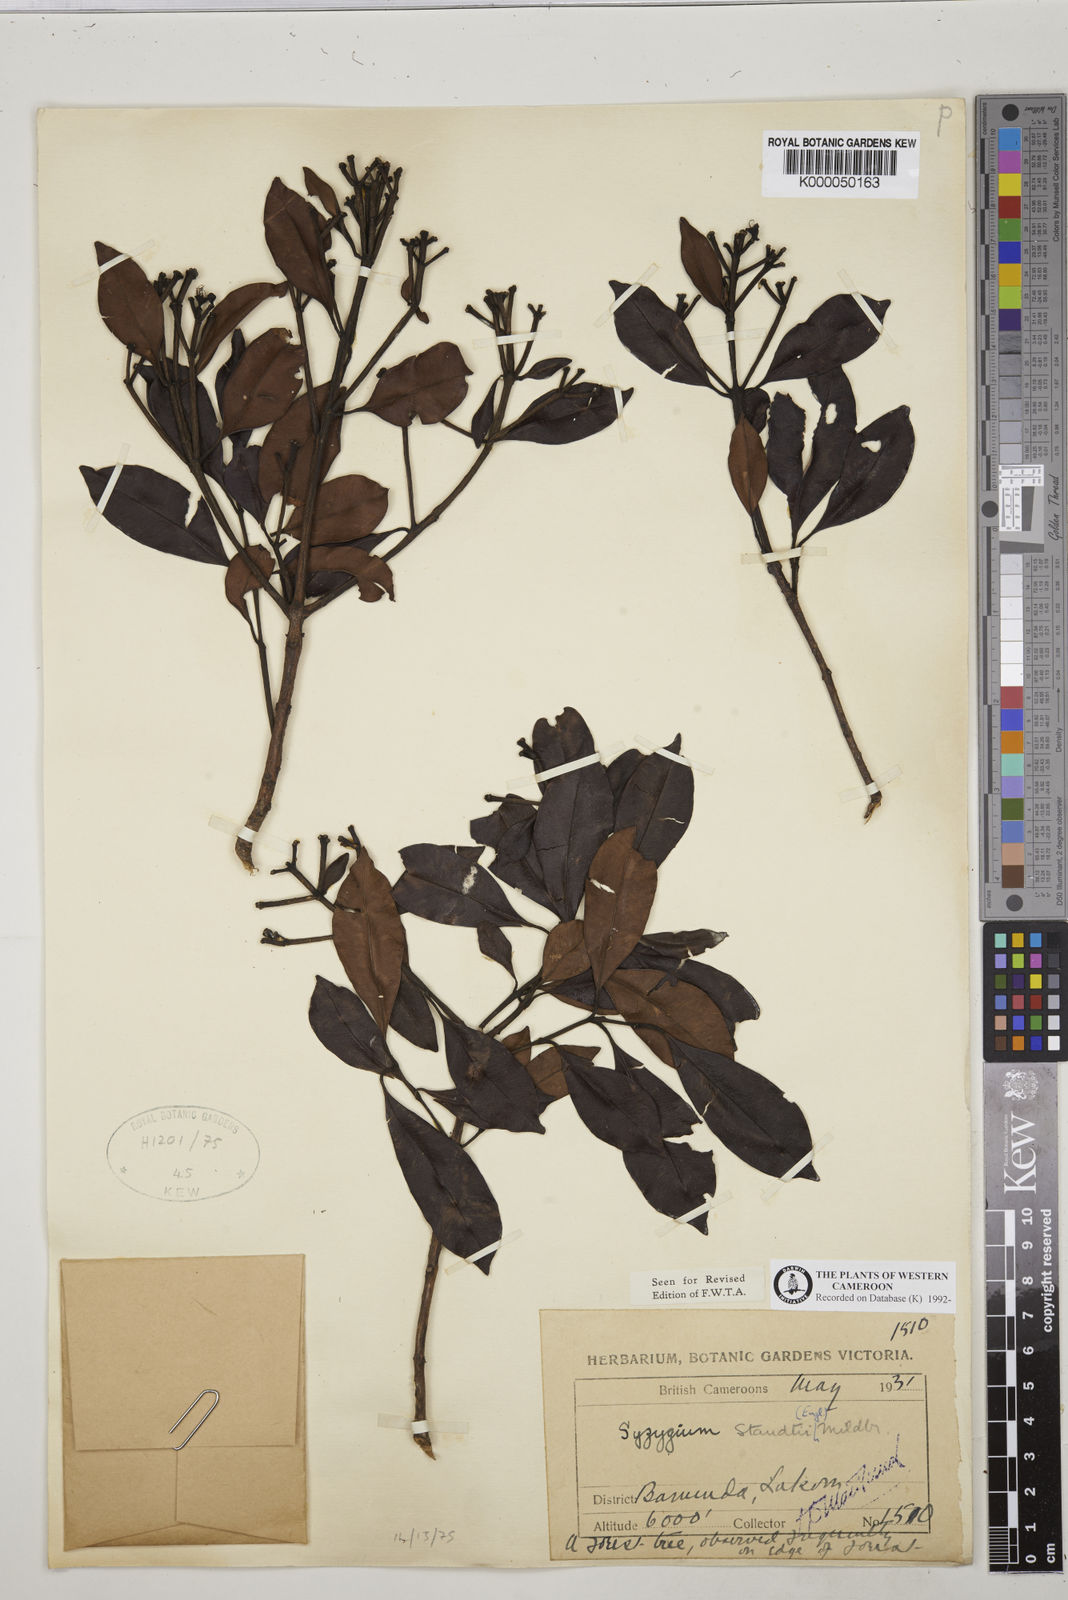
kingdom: Plantae
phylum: Tracheophyta
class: Magnoliopsida
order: Myrtales
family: Myrtaceae
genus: Syzygium
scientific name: Syzygium staudtii
